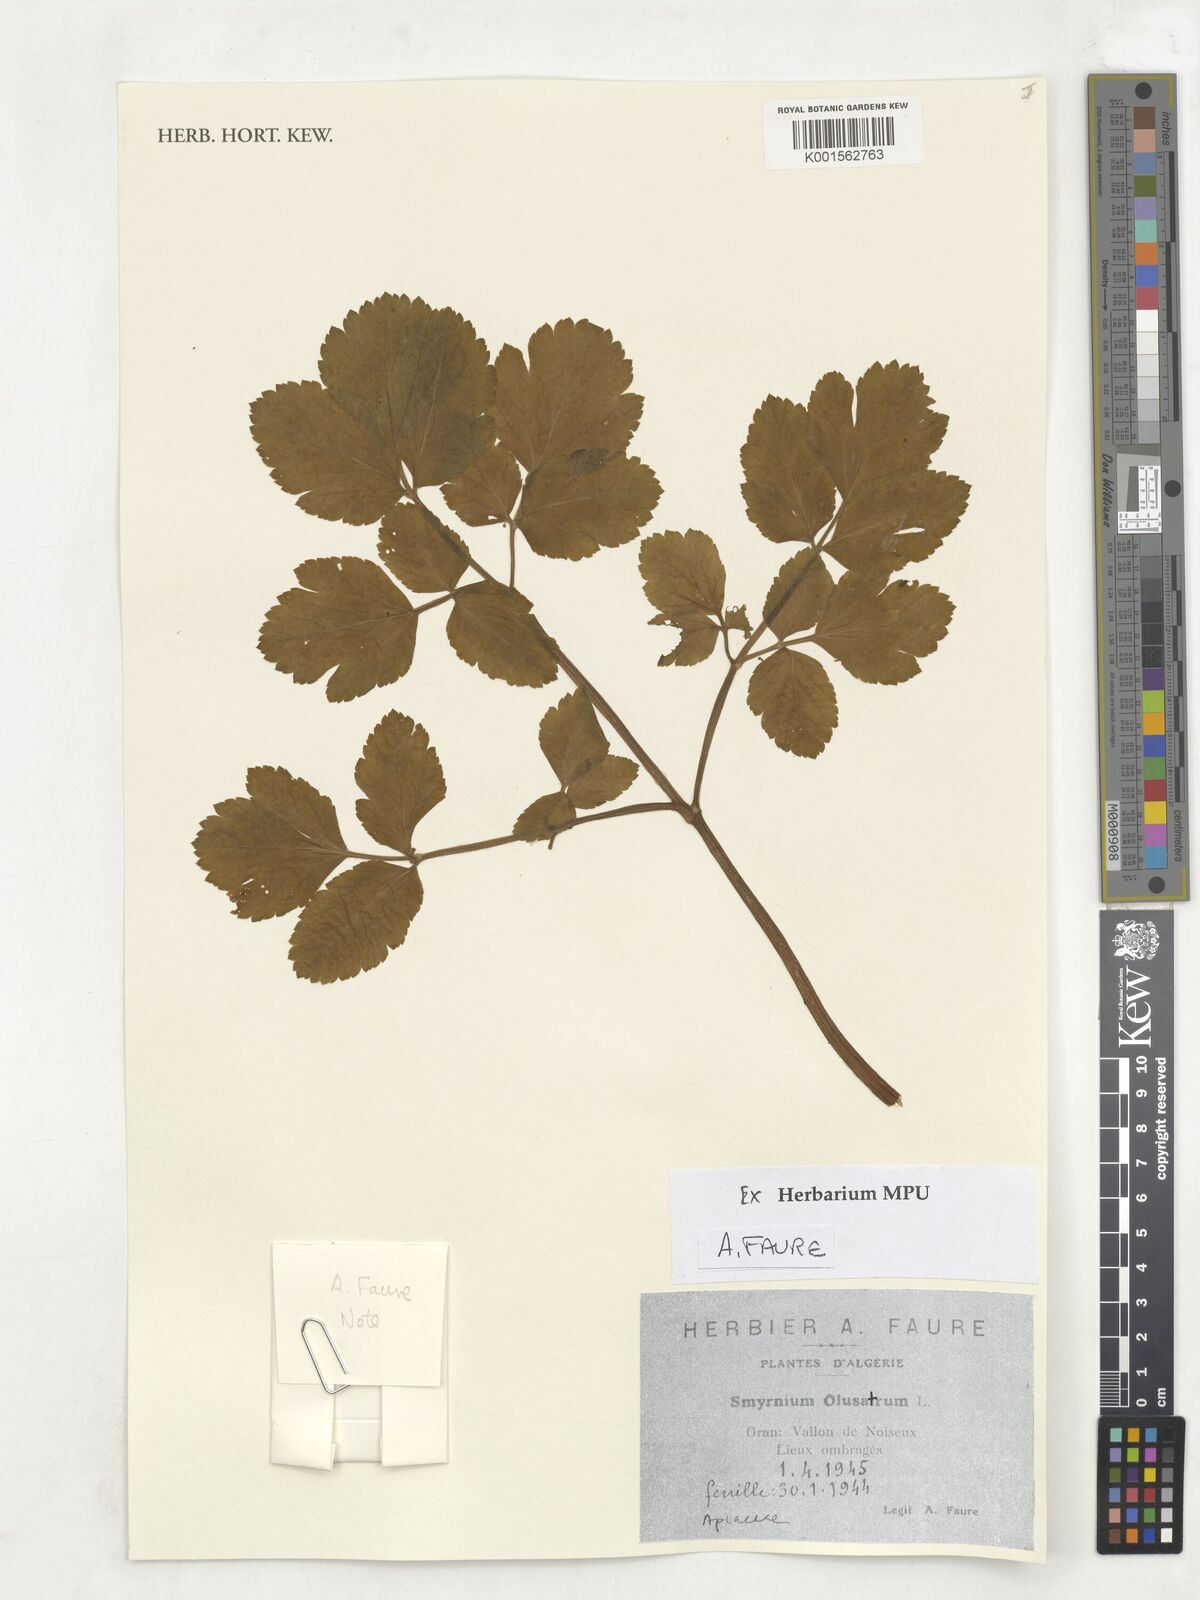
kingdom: Plantae
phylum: Tracheophyta
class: Magnoliopsida
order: Apiales
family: Apiaceae
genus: Smyrnium
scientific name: Smyrnium olusatrum
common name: Alexanders
